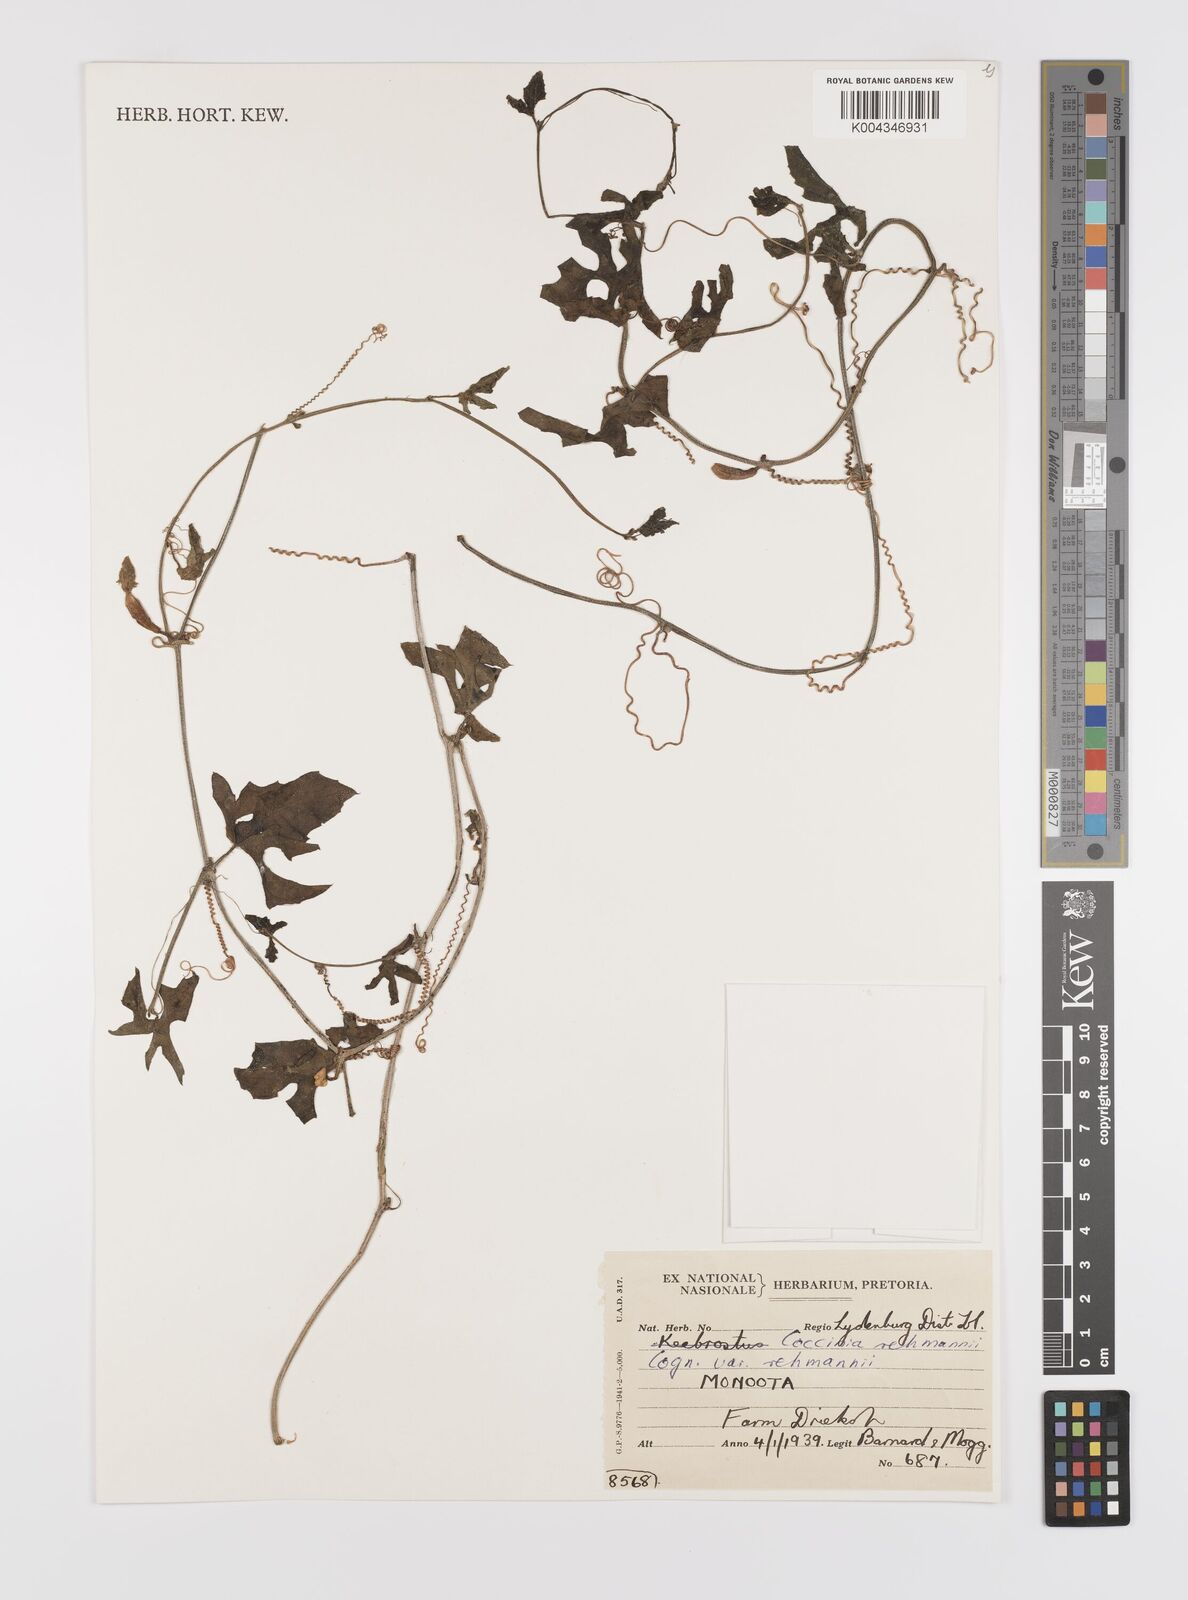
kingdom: Plantae
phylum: Tracheophyta
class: Magnoliopsida
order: Cucurbitales
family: Cucurbitaceae
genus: Coccinia
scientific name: Coccinia rehmannii
